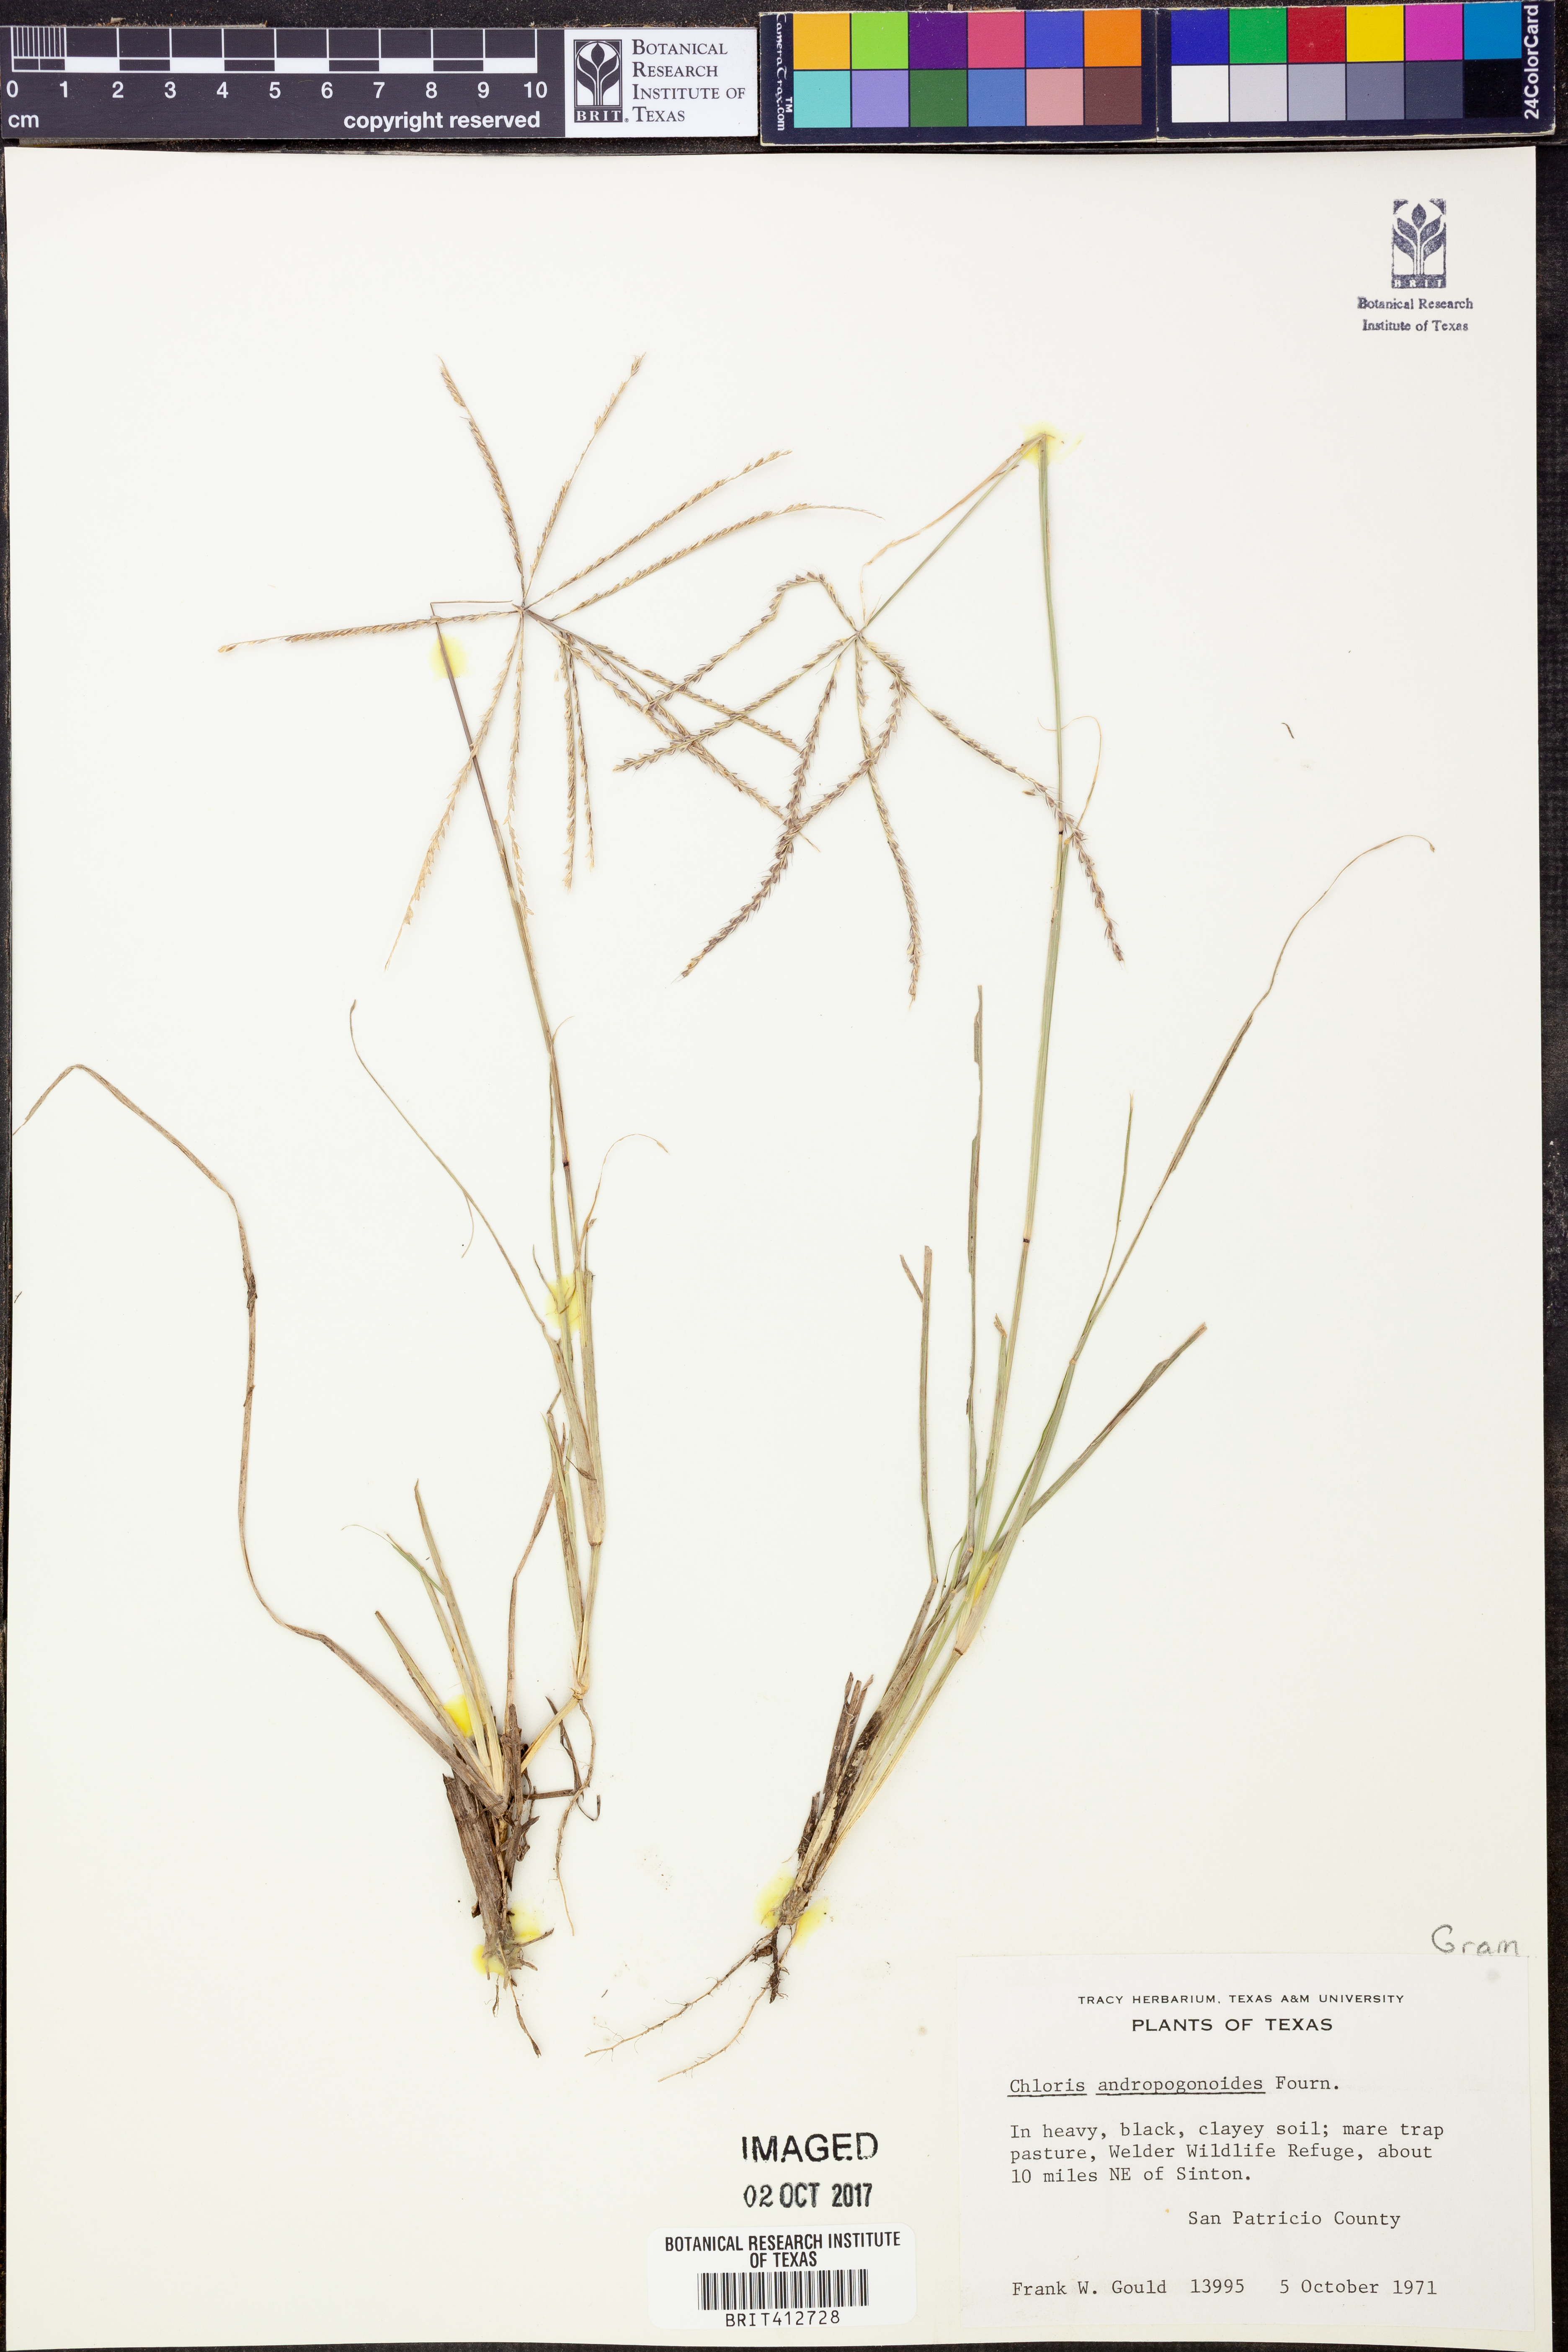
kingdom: Plantae
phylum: Tracheophyta
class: Liliopsida
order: Poales
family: Poaceae
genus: Chloris
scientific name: Chloris andropogonoides
